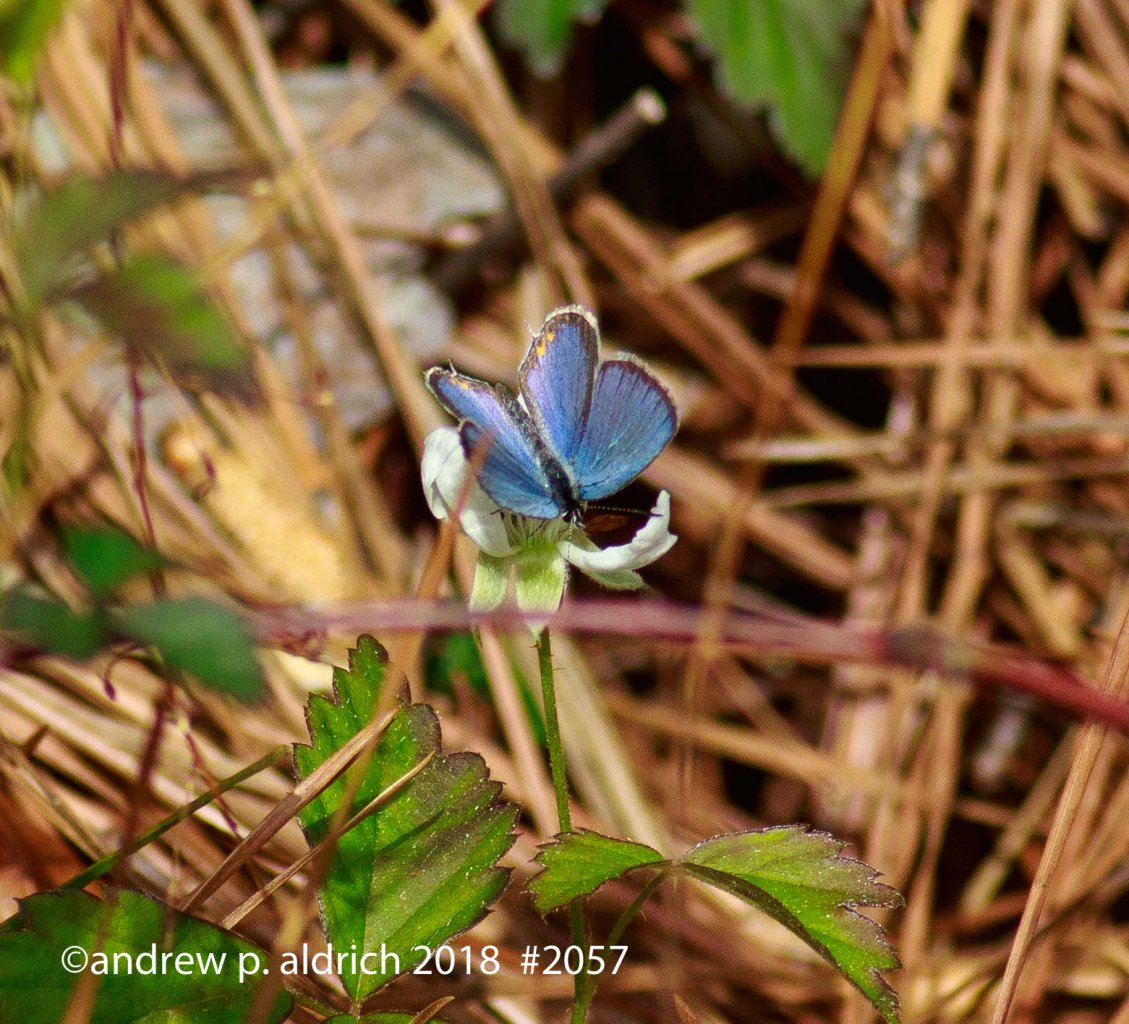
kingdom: Animalia
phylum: Arthropoda
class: Insecta
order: Lepidoptera
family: Lycaenidae
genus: Elkalyce
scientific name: Elkalyce comyntas
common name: Eastern Tailed-Blue
